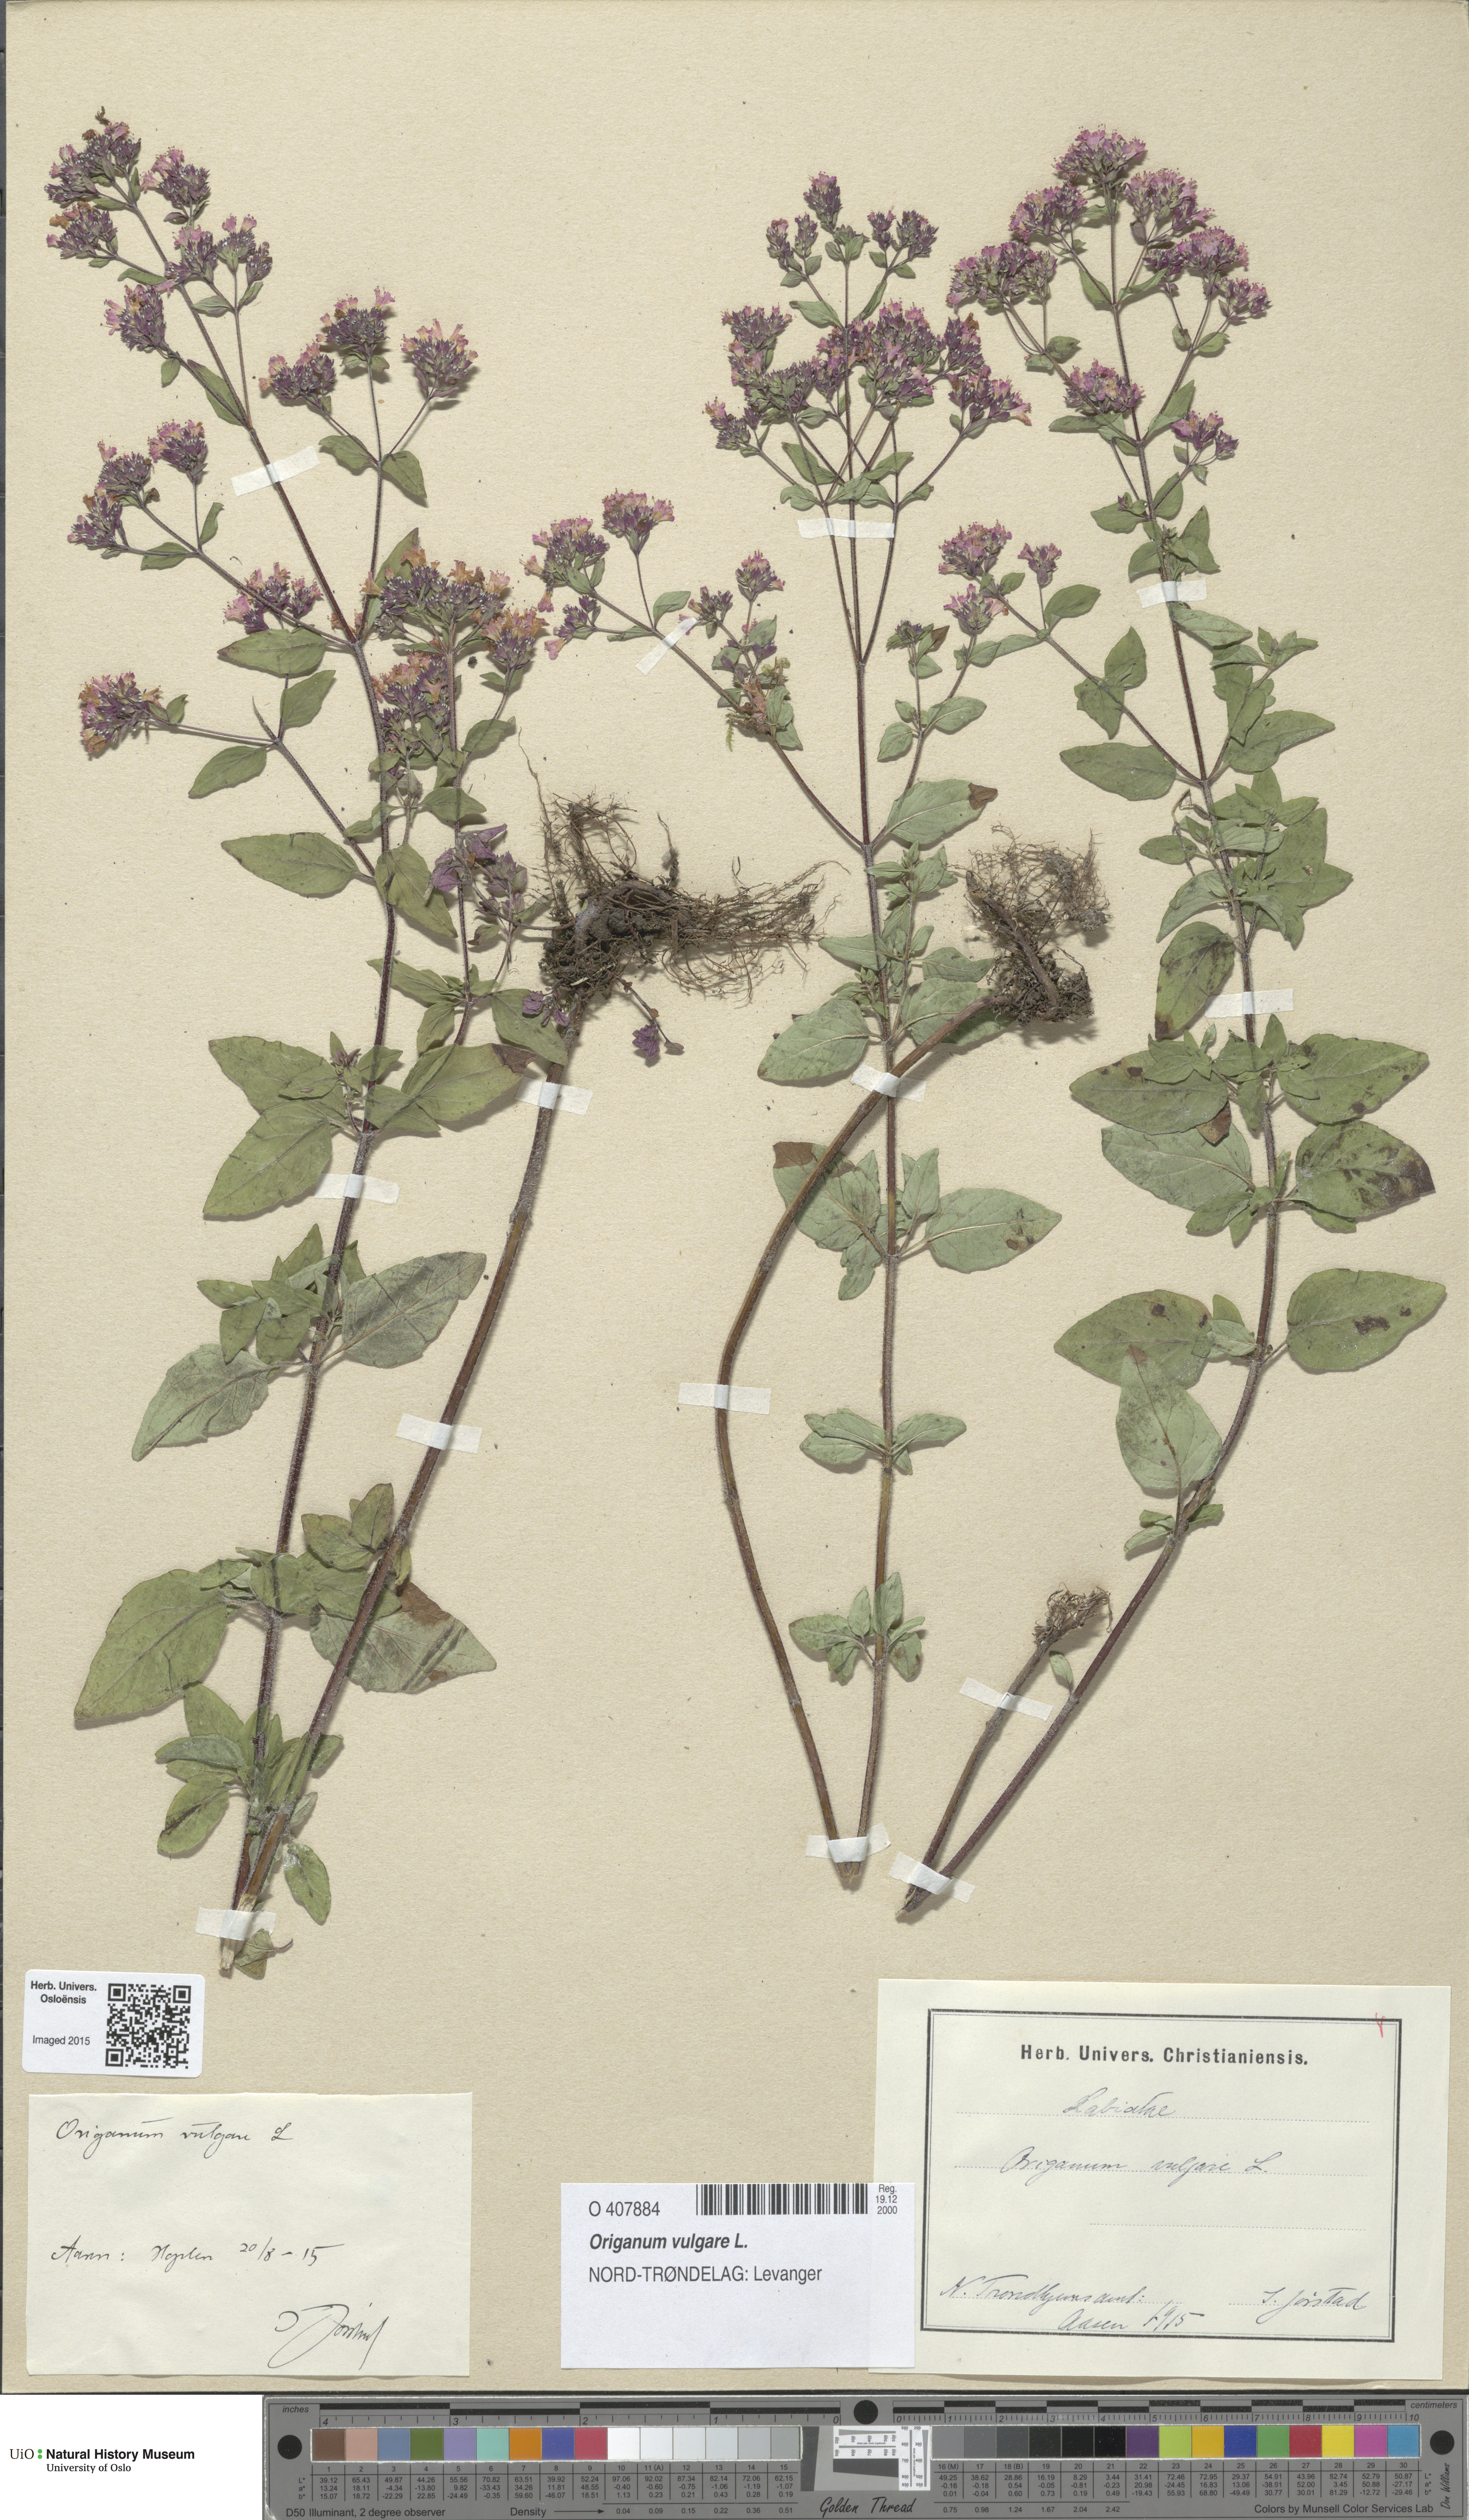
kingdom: Plantae
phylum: Tracheophyta
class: Magnoliopsida
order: Lamiales
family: Lamiaceae
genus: Origanum
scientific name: Origanum vulgare
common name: Wild marjoram
